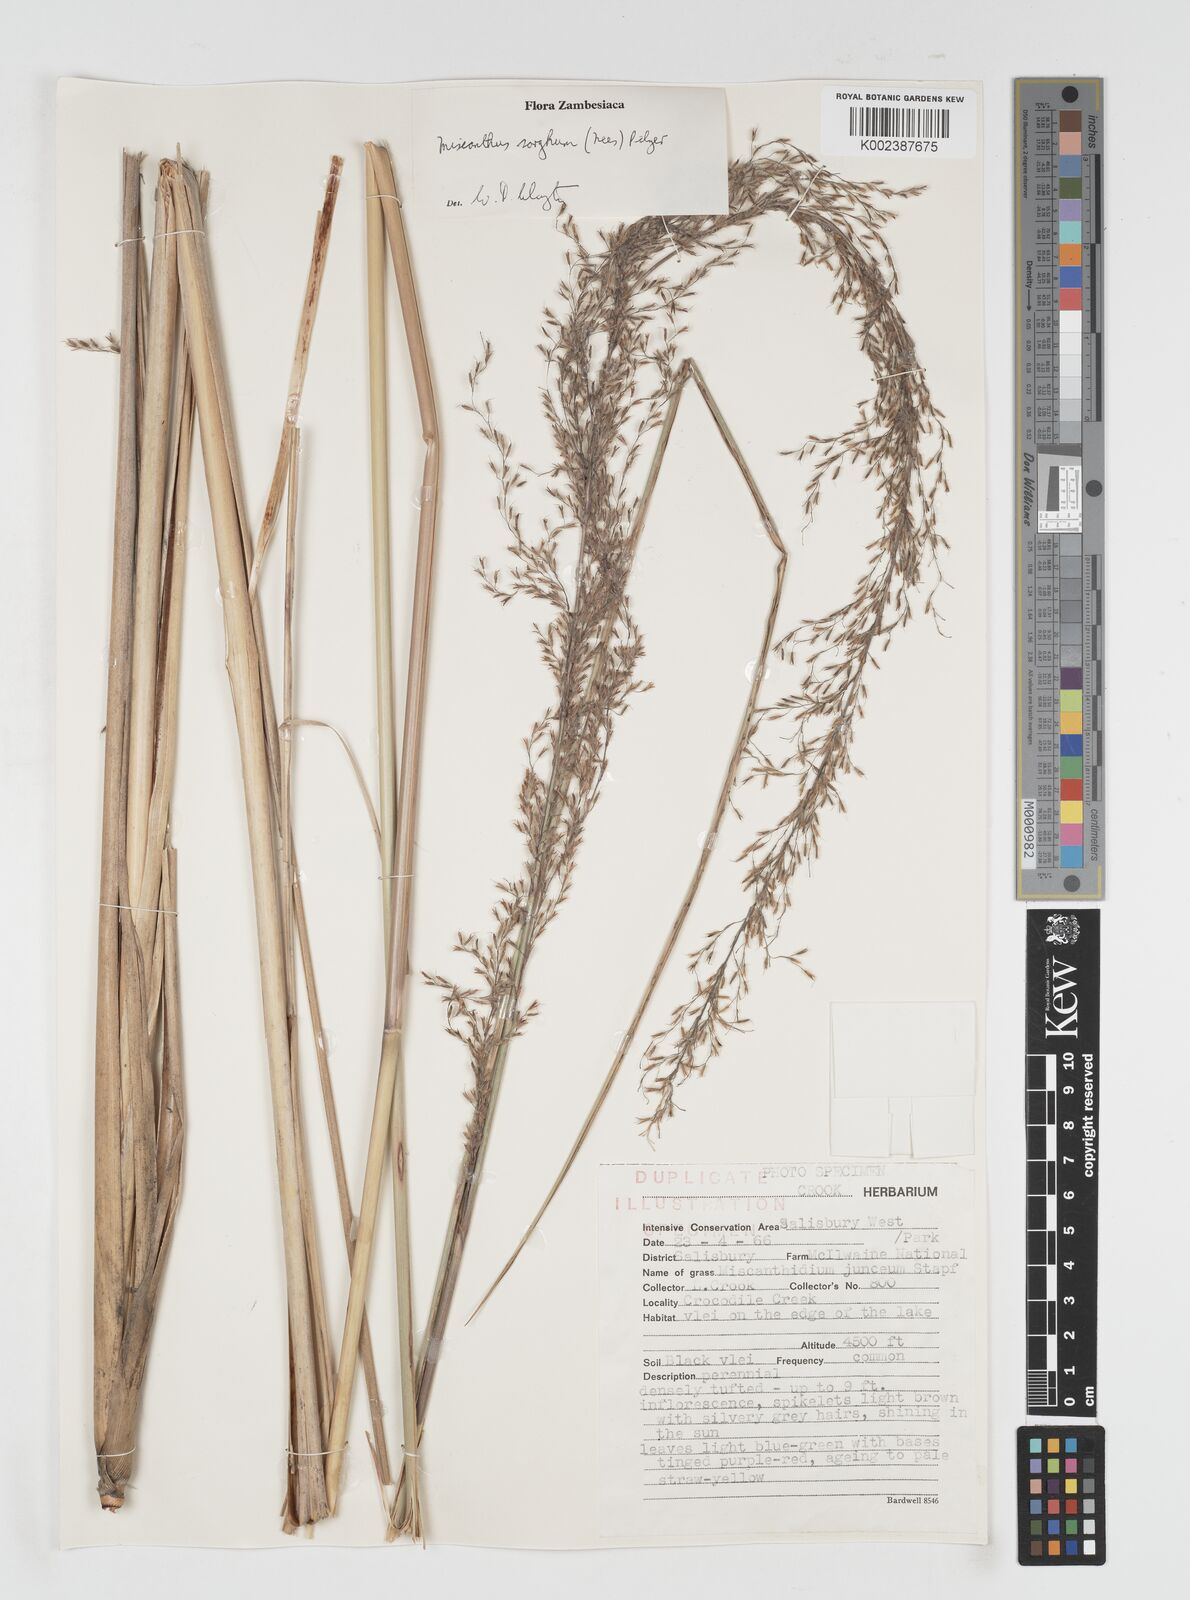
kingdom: Plantae
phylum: Tracheophyta
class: Liliopsida
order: Poales
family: Poaceae
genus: Miscanthus
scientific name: Miscanthus ecklonii
